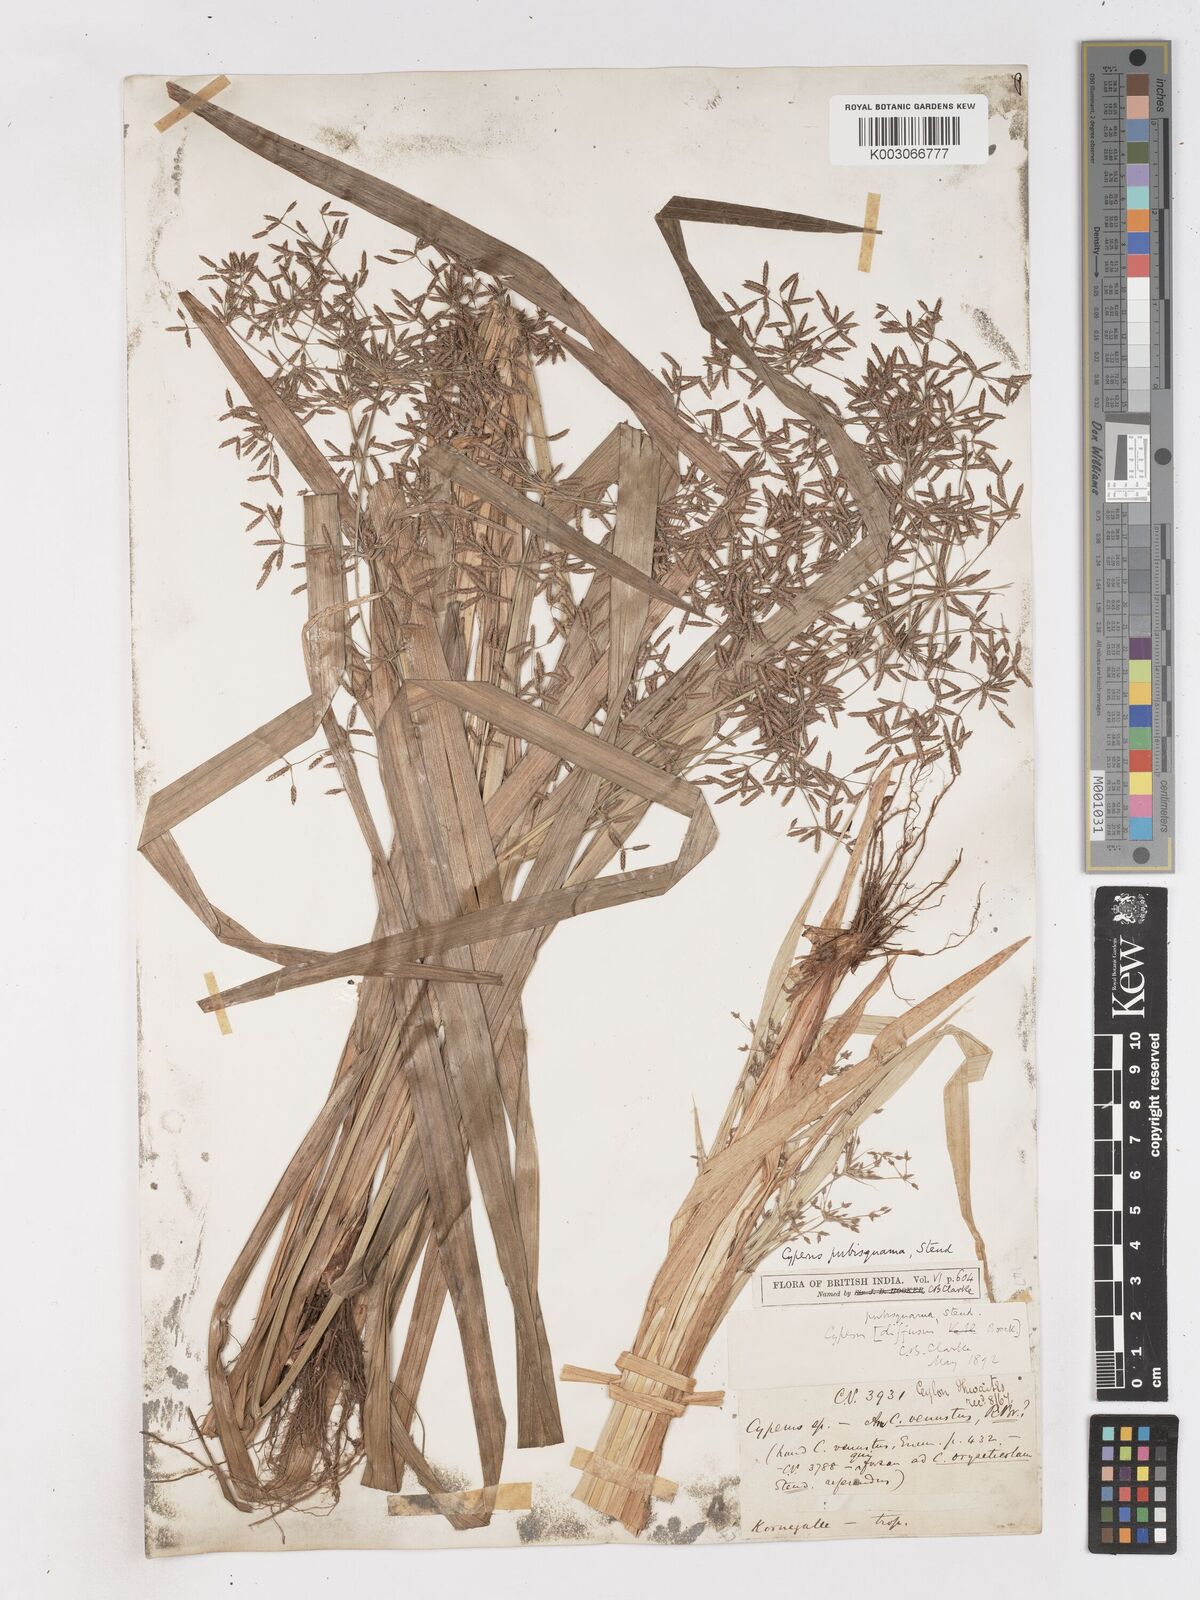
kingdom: Plantae
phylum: Tracheophyta
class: Liliopsida
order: Poales
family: Cyperaceae
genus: Cyperus
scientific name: Cyperus diffusus
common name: Dwarf umbrella grass
